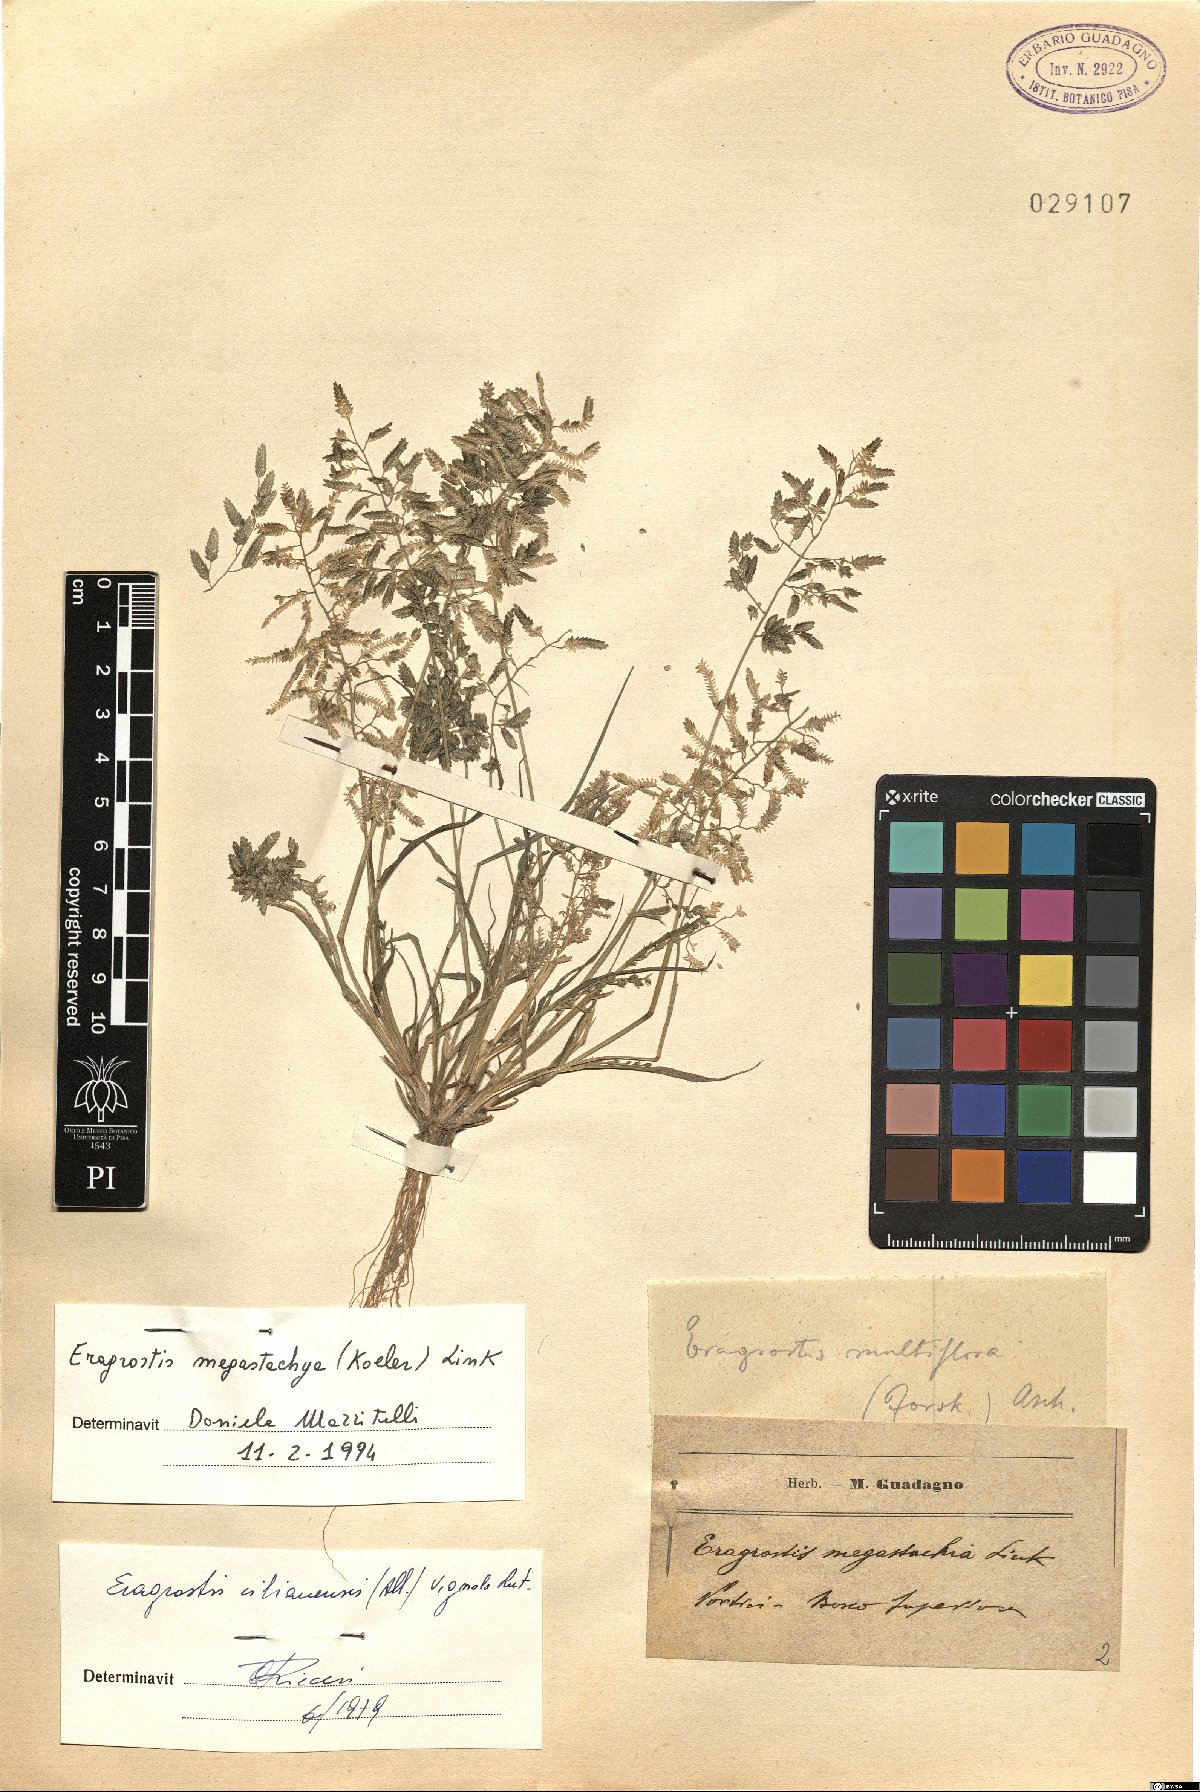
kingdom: Plantae
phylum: Tracheophyta
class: Liliopsida
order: Poales
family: Poaceae
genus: Eragrostis
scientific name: Eragrostis cilianensis
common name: Stinkgrass
